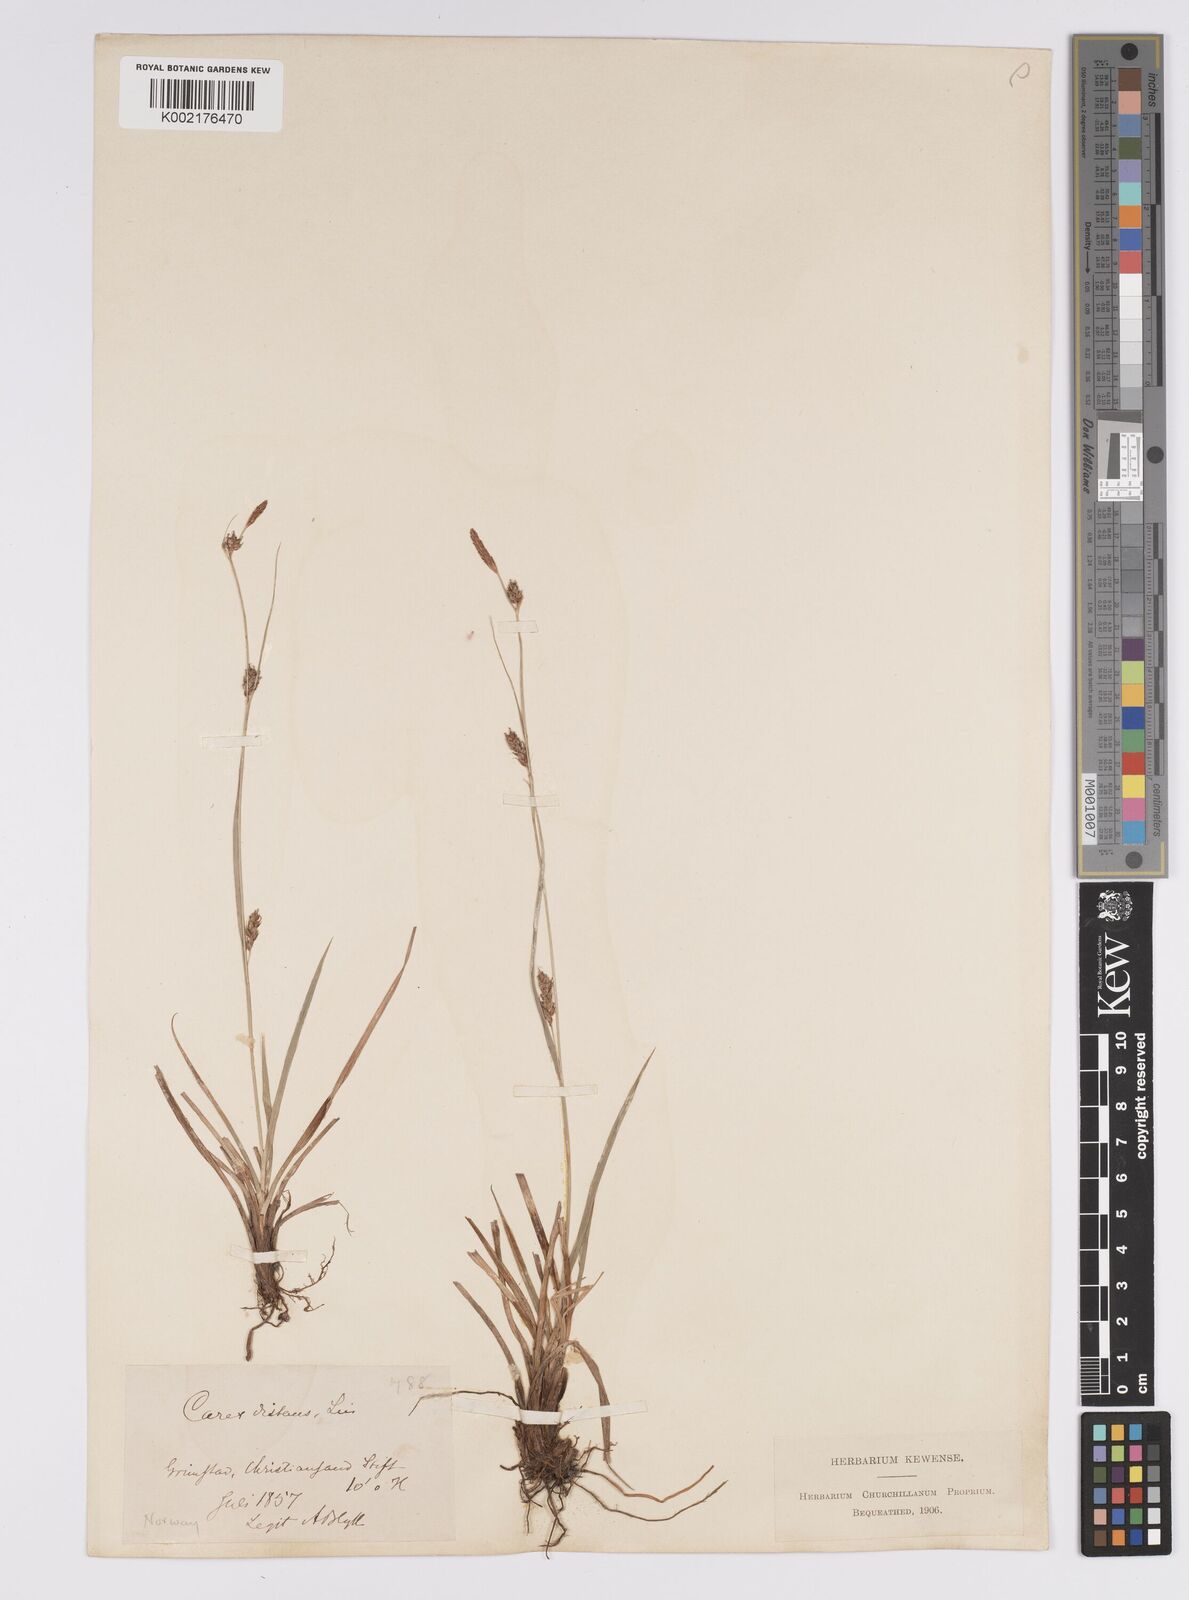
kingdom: Plantae
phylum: Tracheophyta
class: Liliopsida
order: Poales
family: Cyperaceae
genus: Carex
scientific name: Carex distans
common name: Distant sedge
